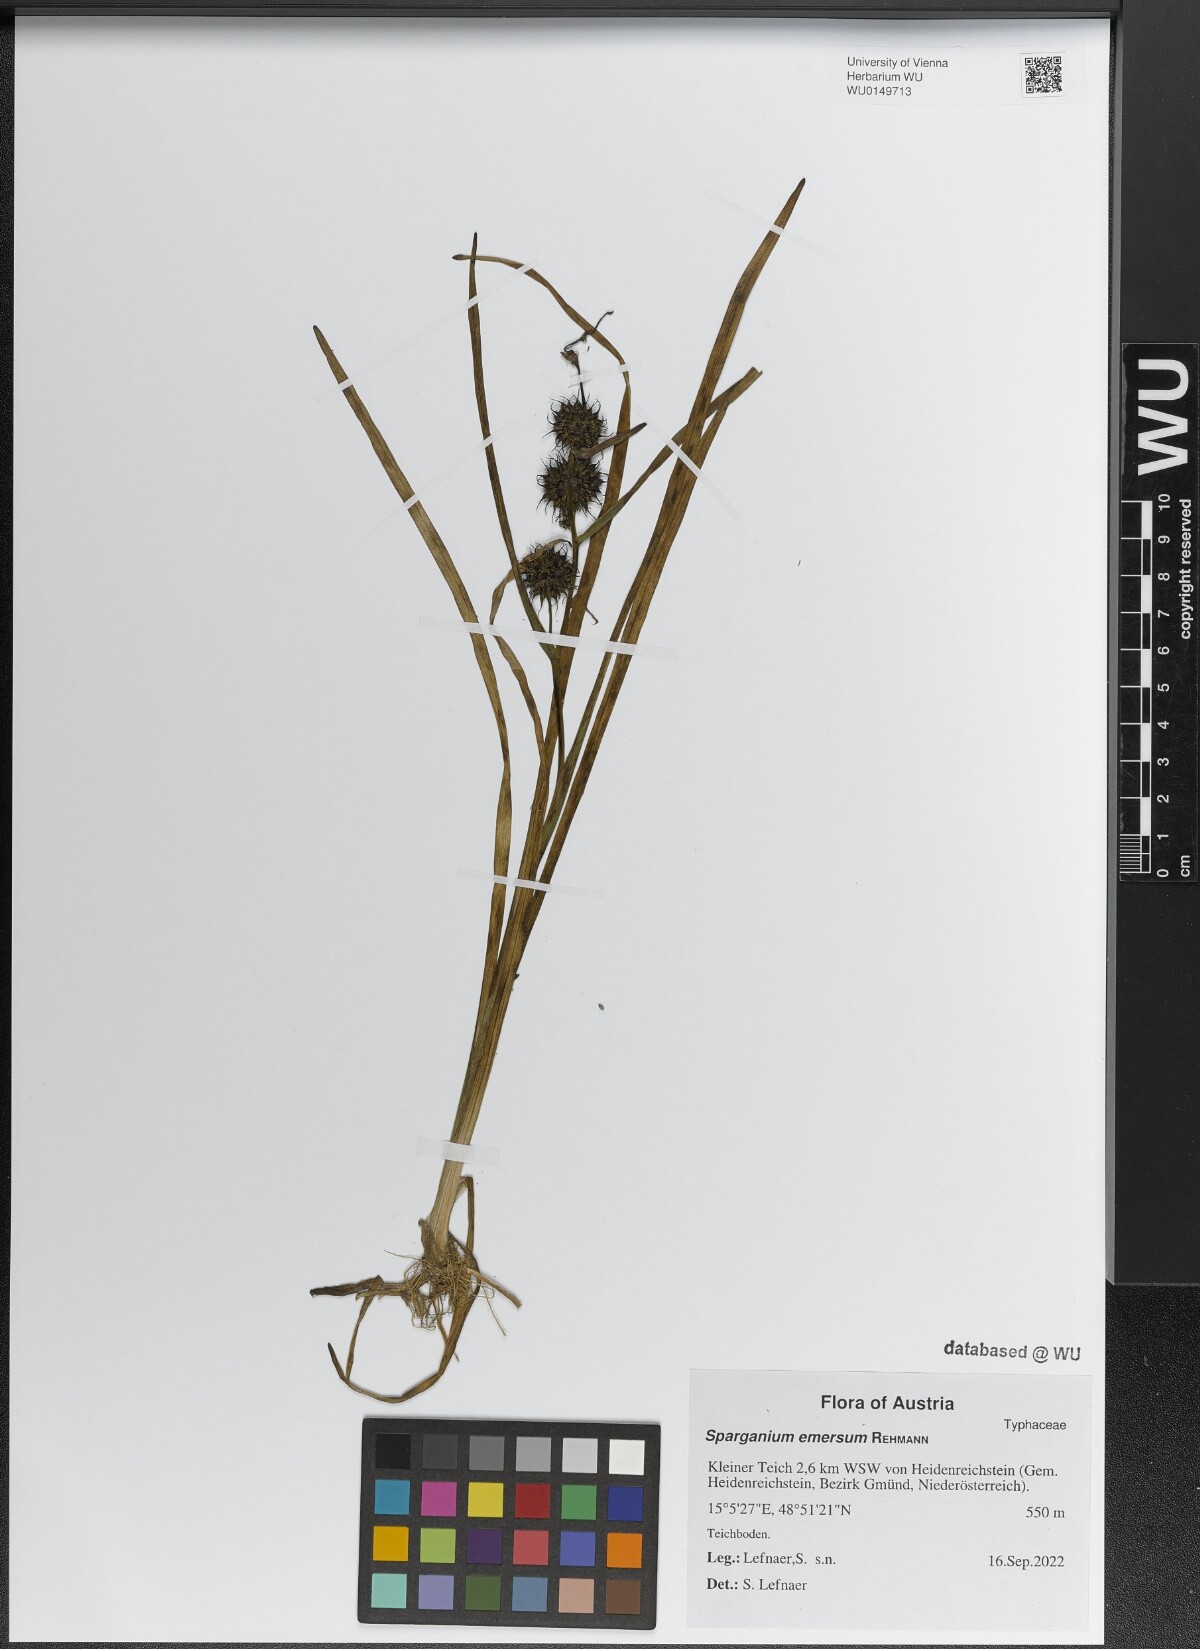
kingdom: Plantae
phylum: Tracheophyta
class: Liliopsida
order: Poales
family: Typhaceae
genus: Sparganium
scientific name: Sparganium emersum
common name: Unbranched bur-reed
